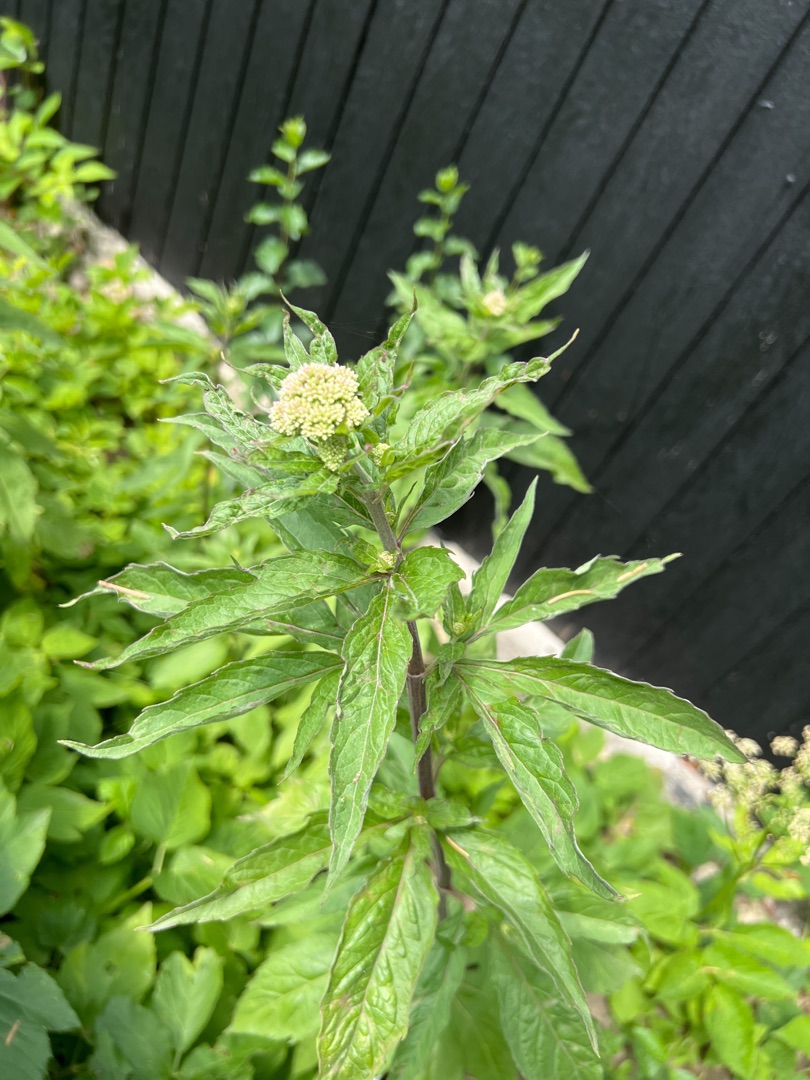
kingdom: Plantae
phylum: Tracheophyta
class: Magnoliopsida
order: Asterales
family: Asteraceae
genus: Eupatorium
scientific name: Eupatorium cannabinum
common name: Hjortetrøst
